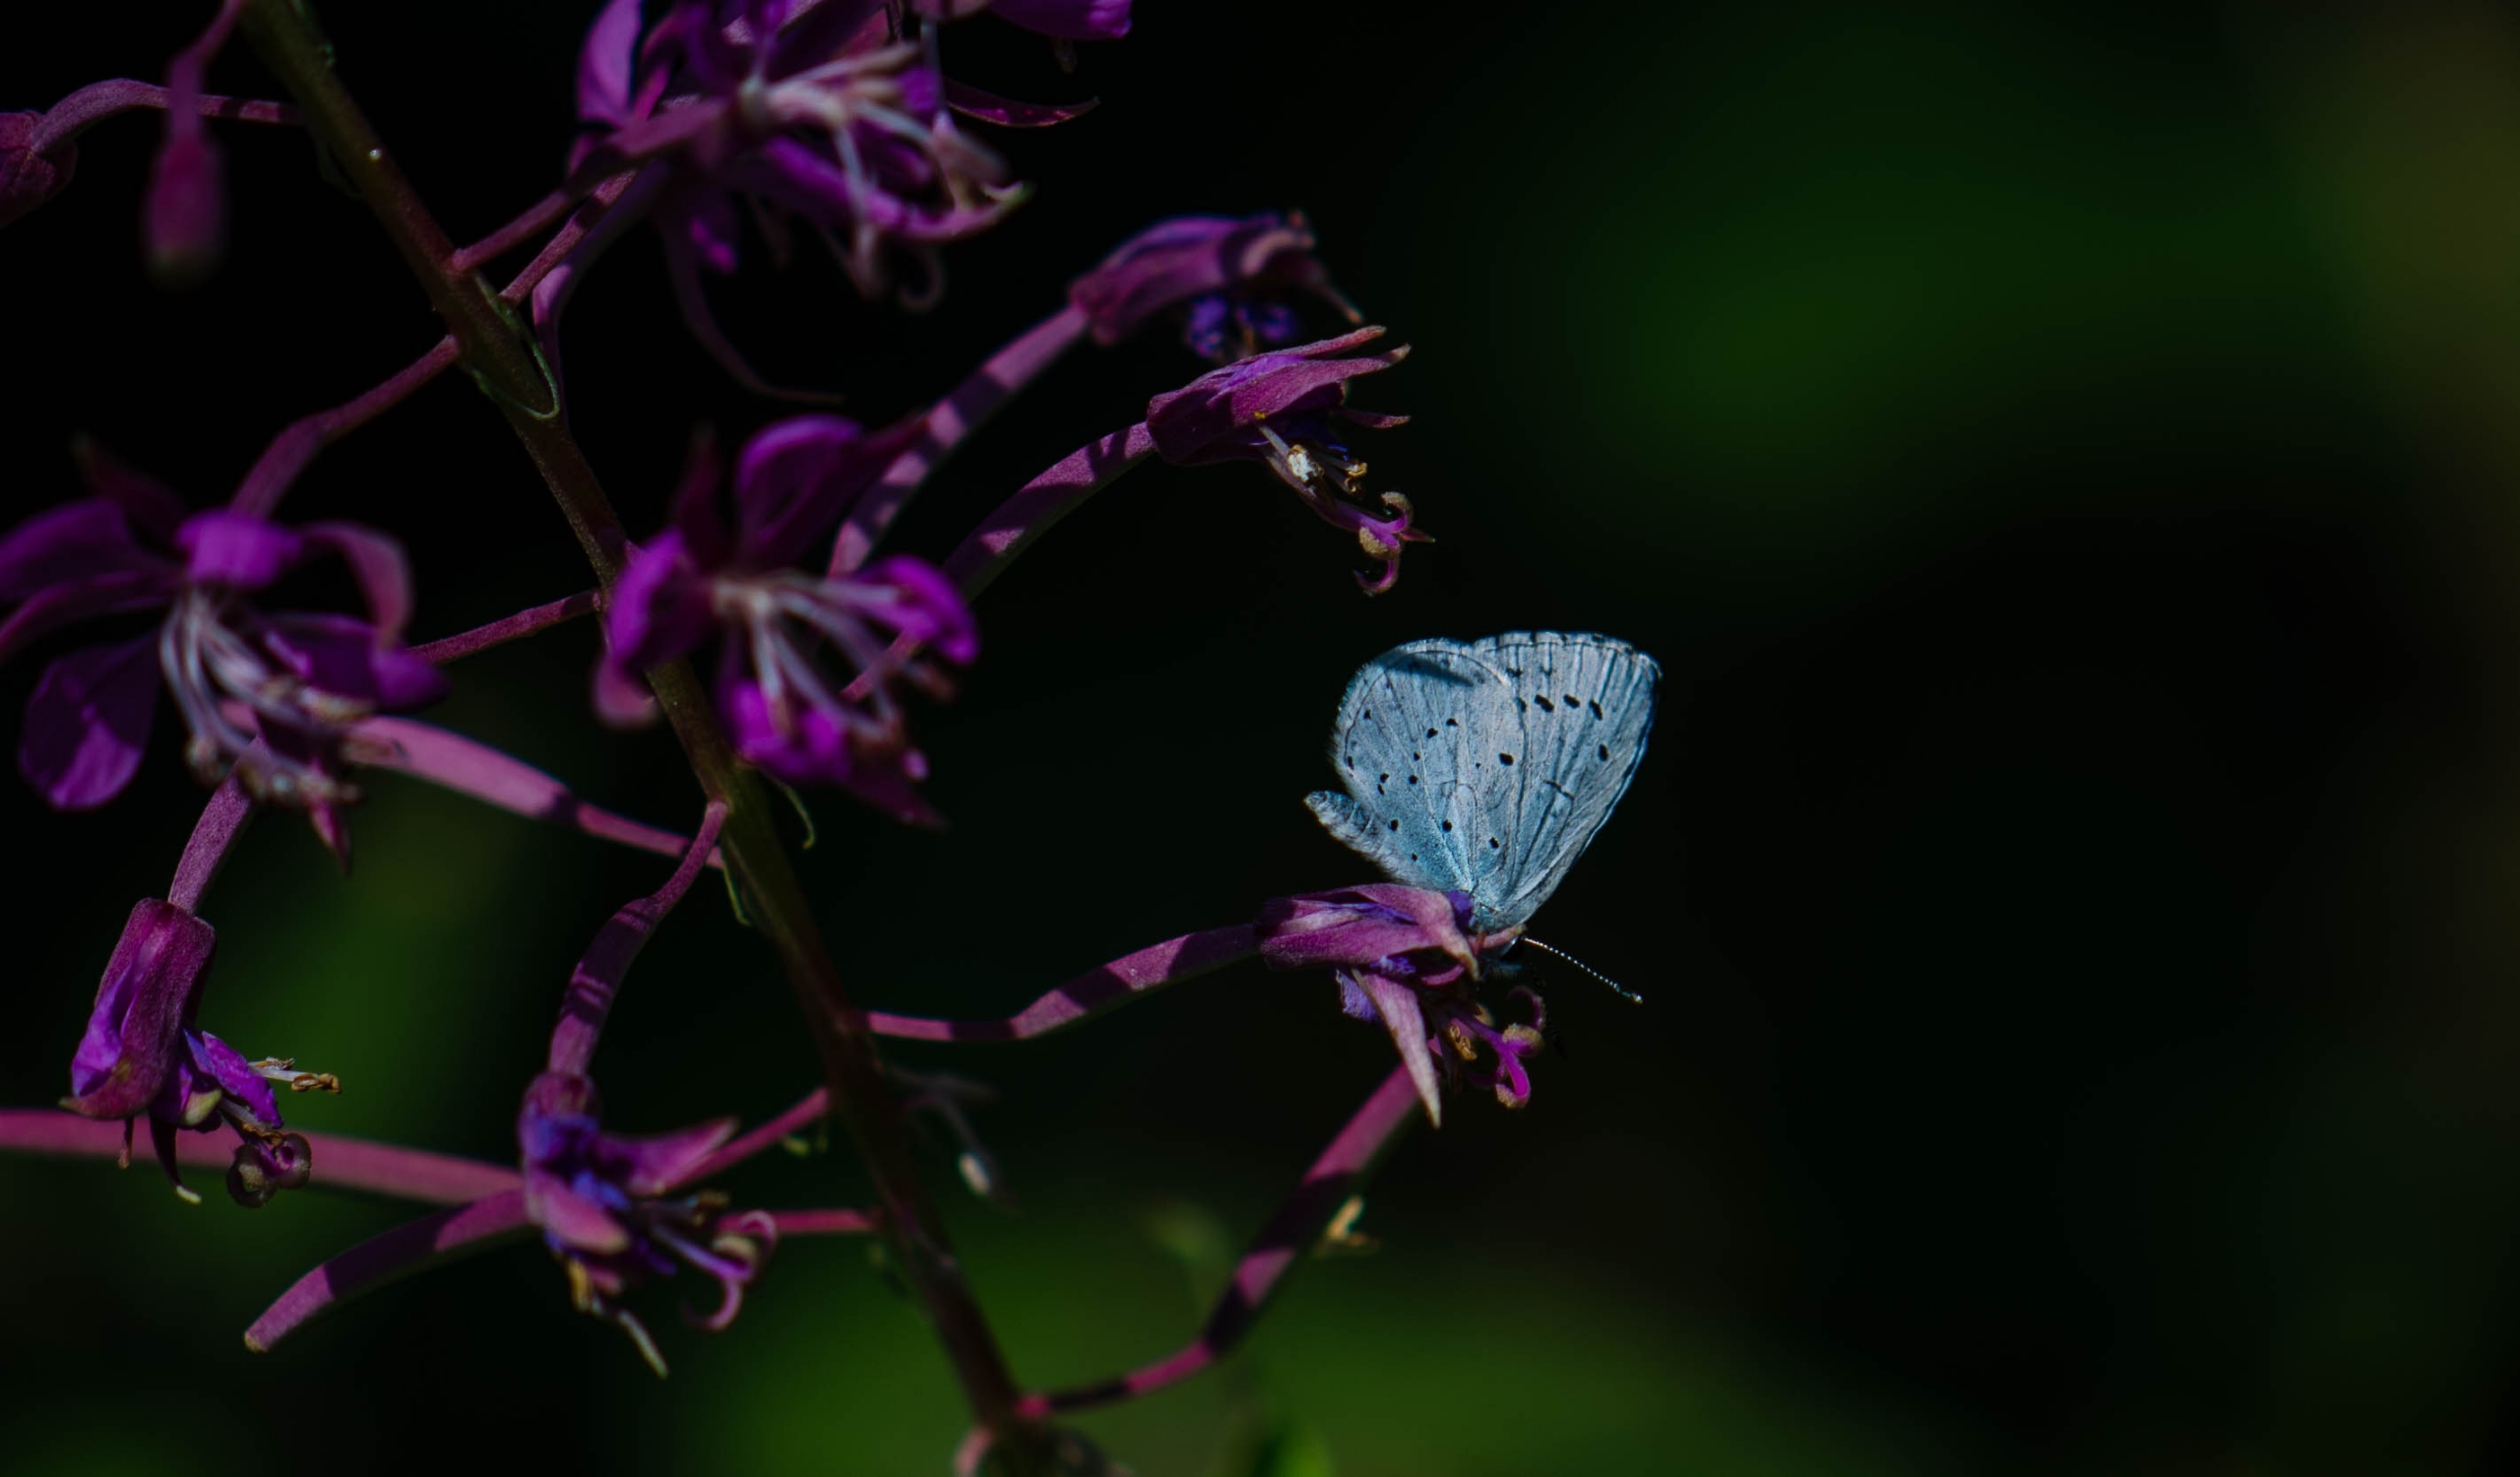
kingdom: Animalia
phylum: Arthropoda
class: Insecta
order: Lepidoptera
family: Lycaenidae
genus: Celastrina
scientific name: Celastrina argiolus
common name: Skovblåfugl
